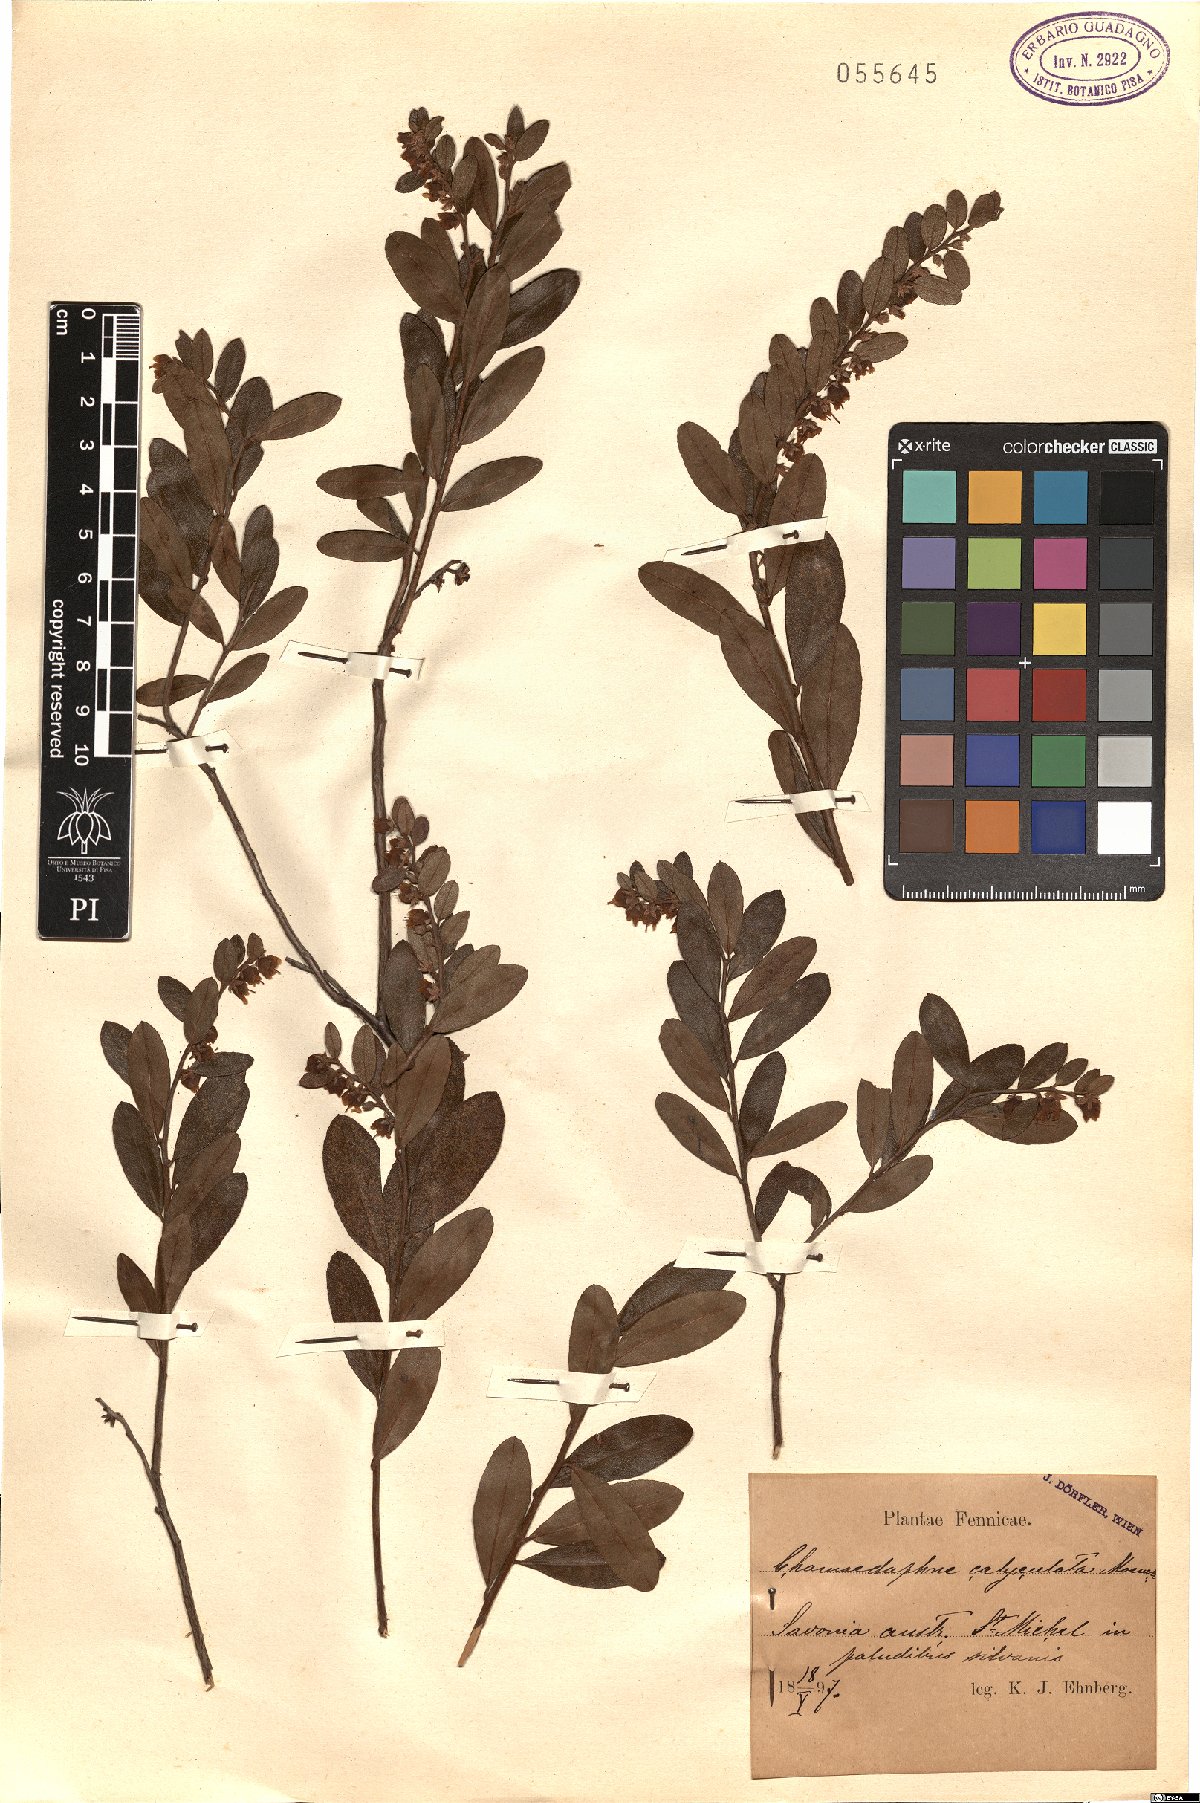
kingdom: Plantae
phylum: Tracheophyta
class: Magnoliopsida
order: Ericales
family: Ericaceae
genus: Chamaedaphne
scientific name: Chamaedaphne calyculata
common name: Leatherleaf
